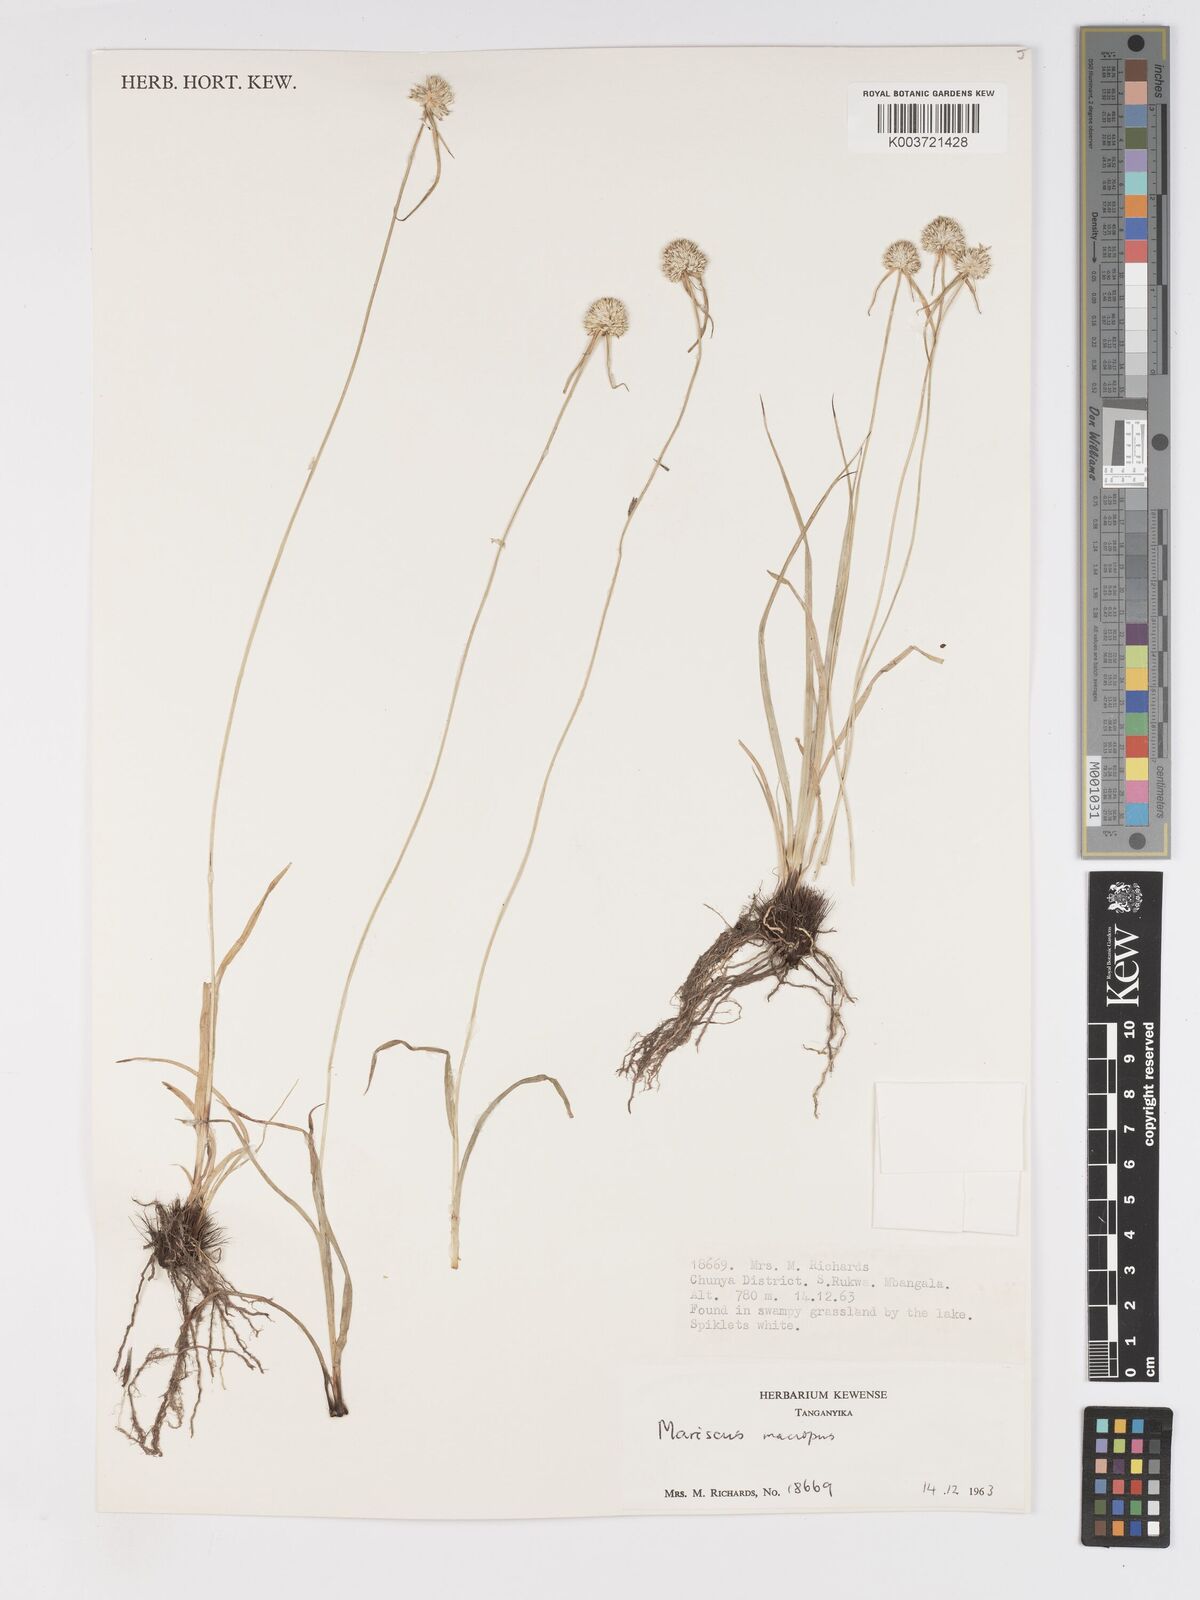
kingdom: Plantae
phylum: Tracheophyta
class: Liliopsida
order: Poales
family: Cyperaceae
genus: Cyperus
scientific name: Cyperus mollipes
